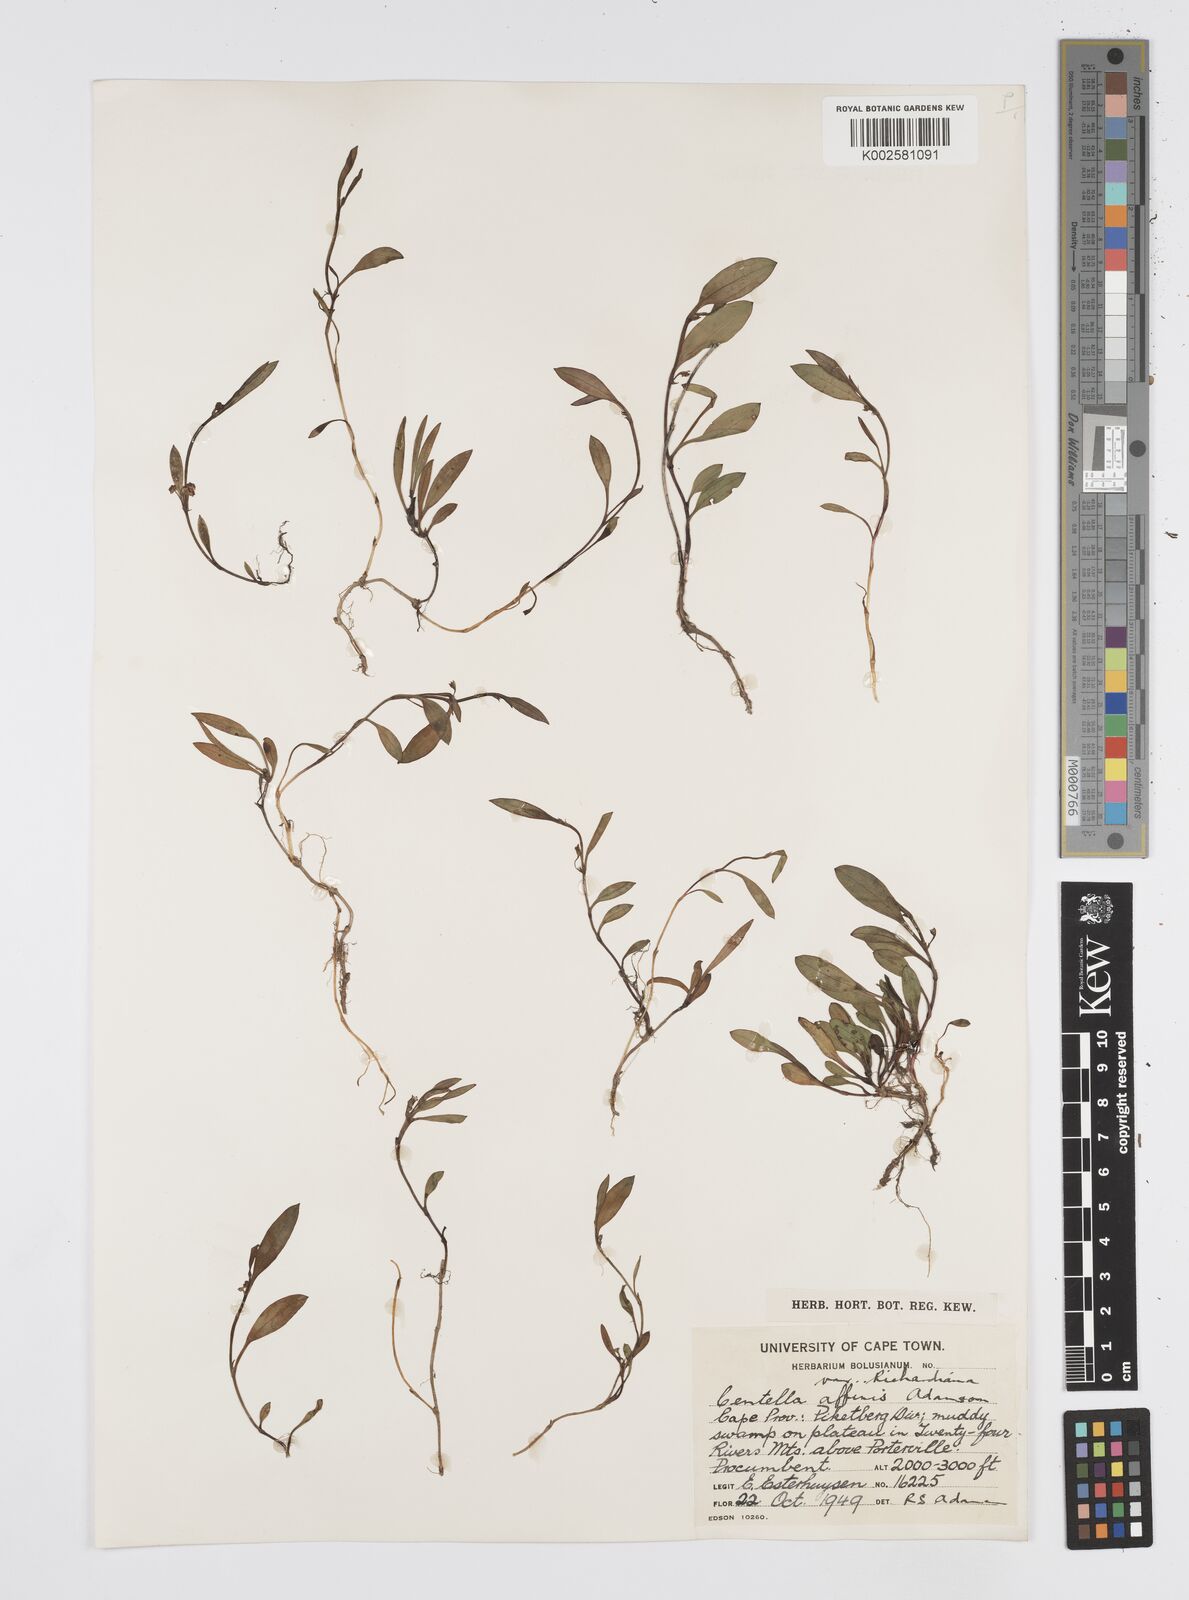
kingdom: Plantae
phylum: Tracheophyta
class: Magnoliopsida
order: Apiales
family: Apiaceae
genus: Centella
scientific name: Centella affinis
